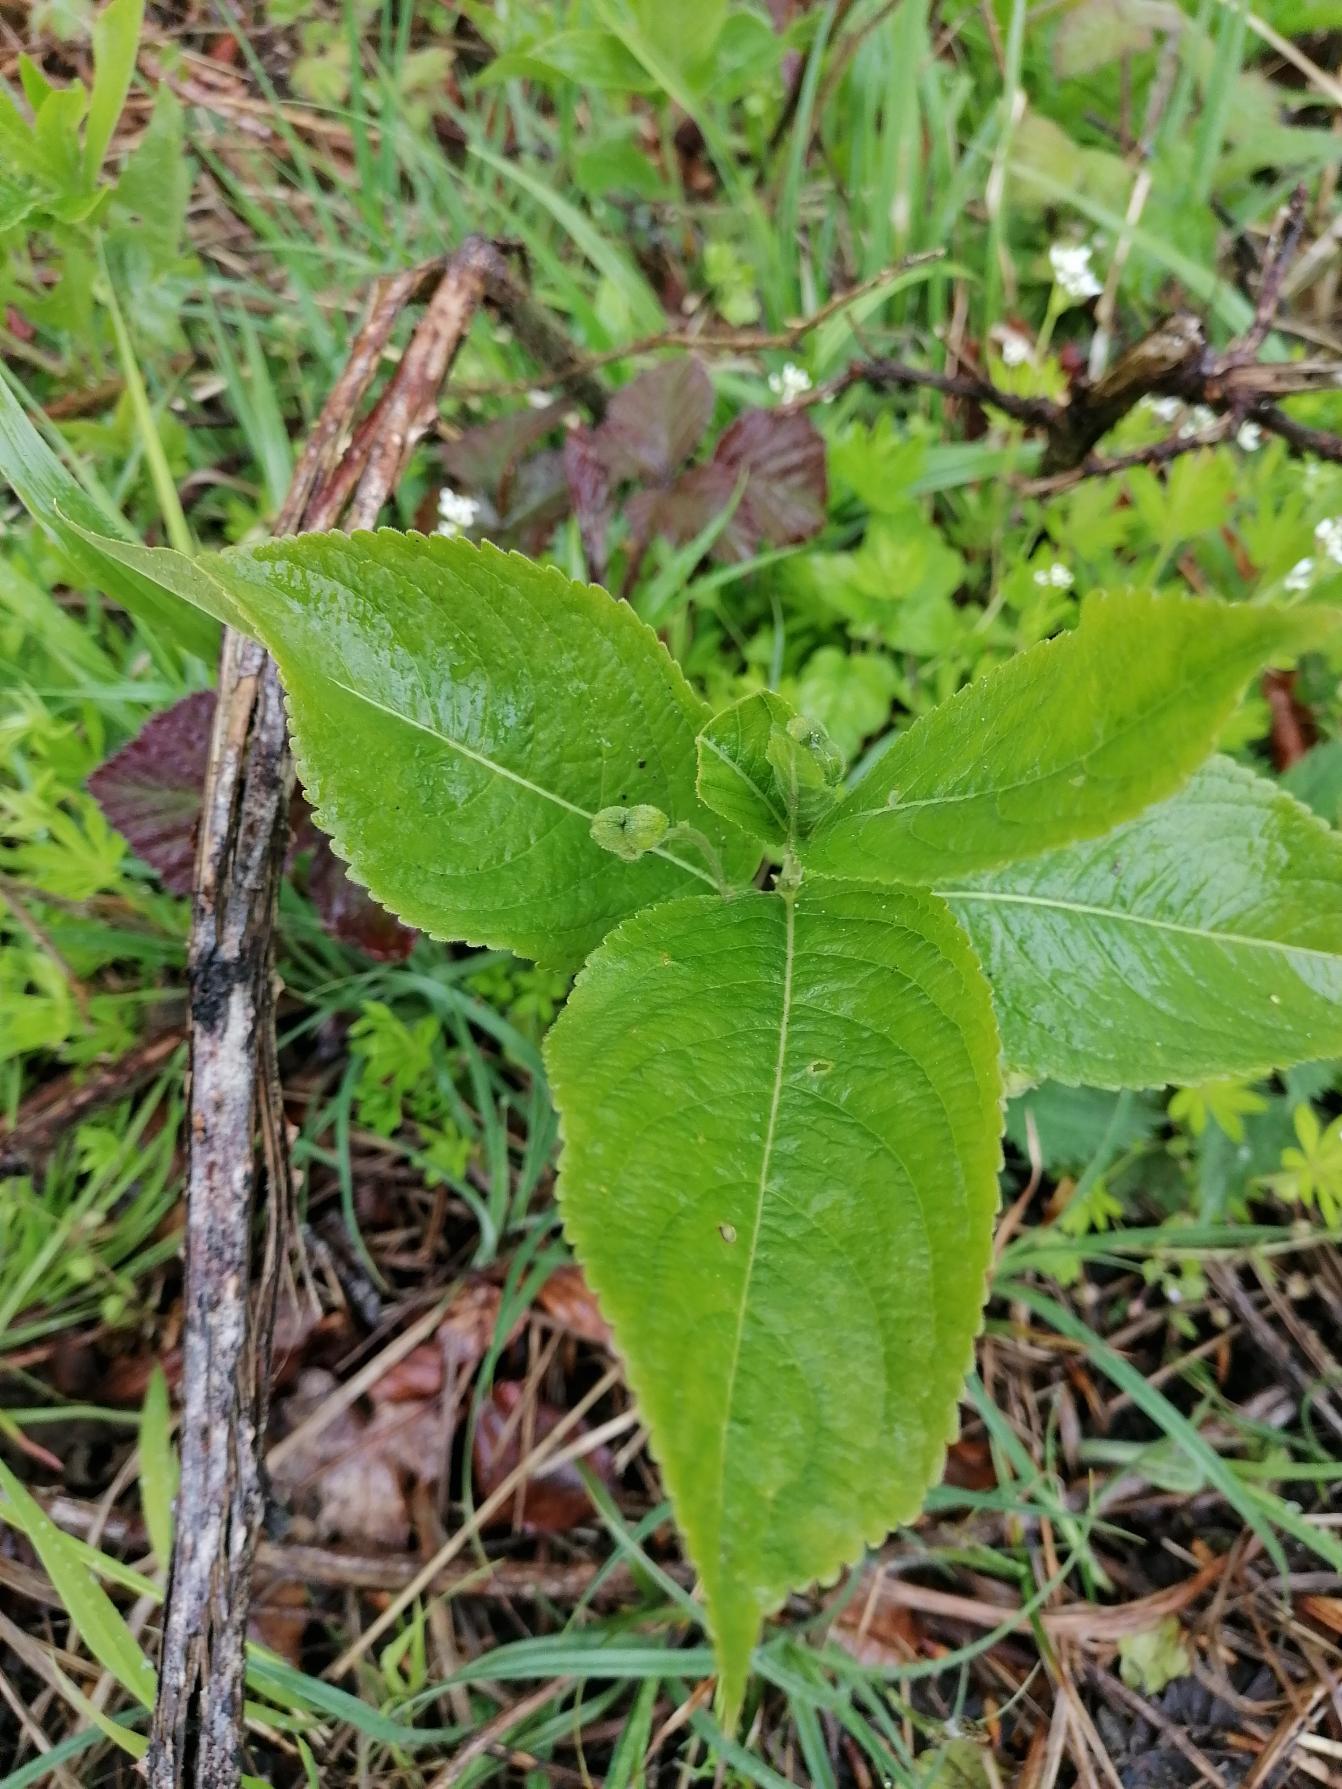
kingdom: Plantae
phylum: Tracheophyta
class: Magnoliopsida
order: Malpighiales
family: Euphorbiaceae
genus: Mercurialis
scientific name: Mercurialis perennis
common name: Almindelig bingelurt
